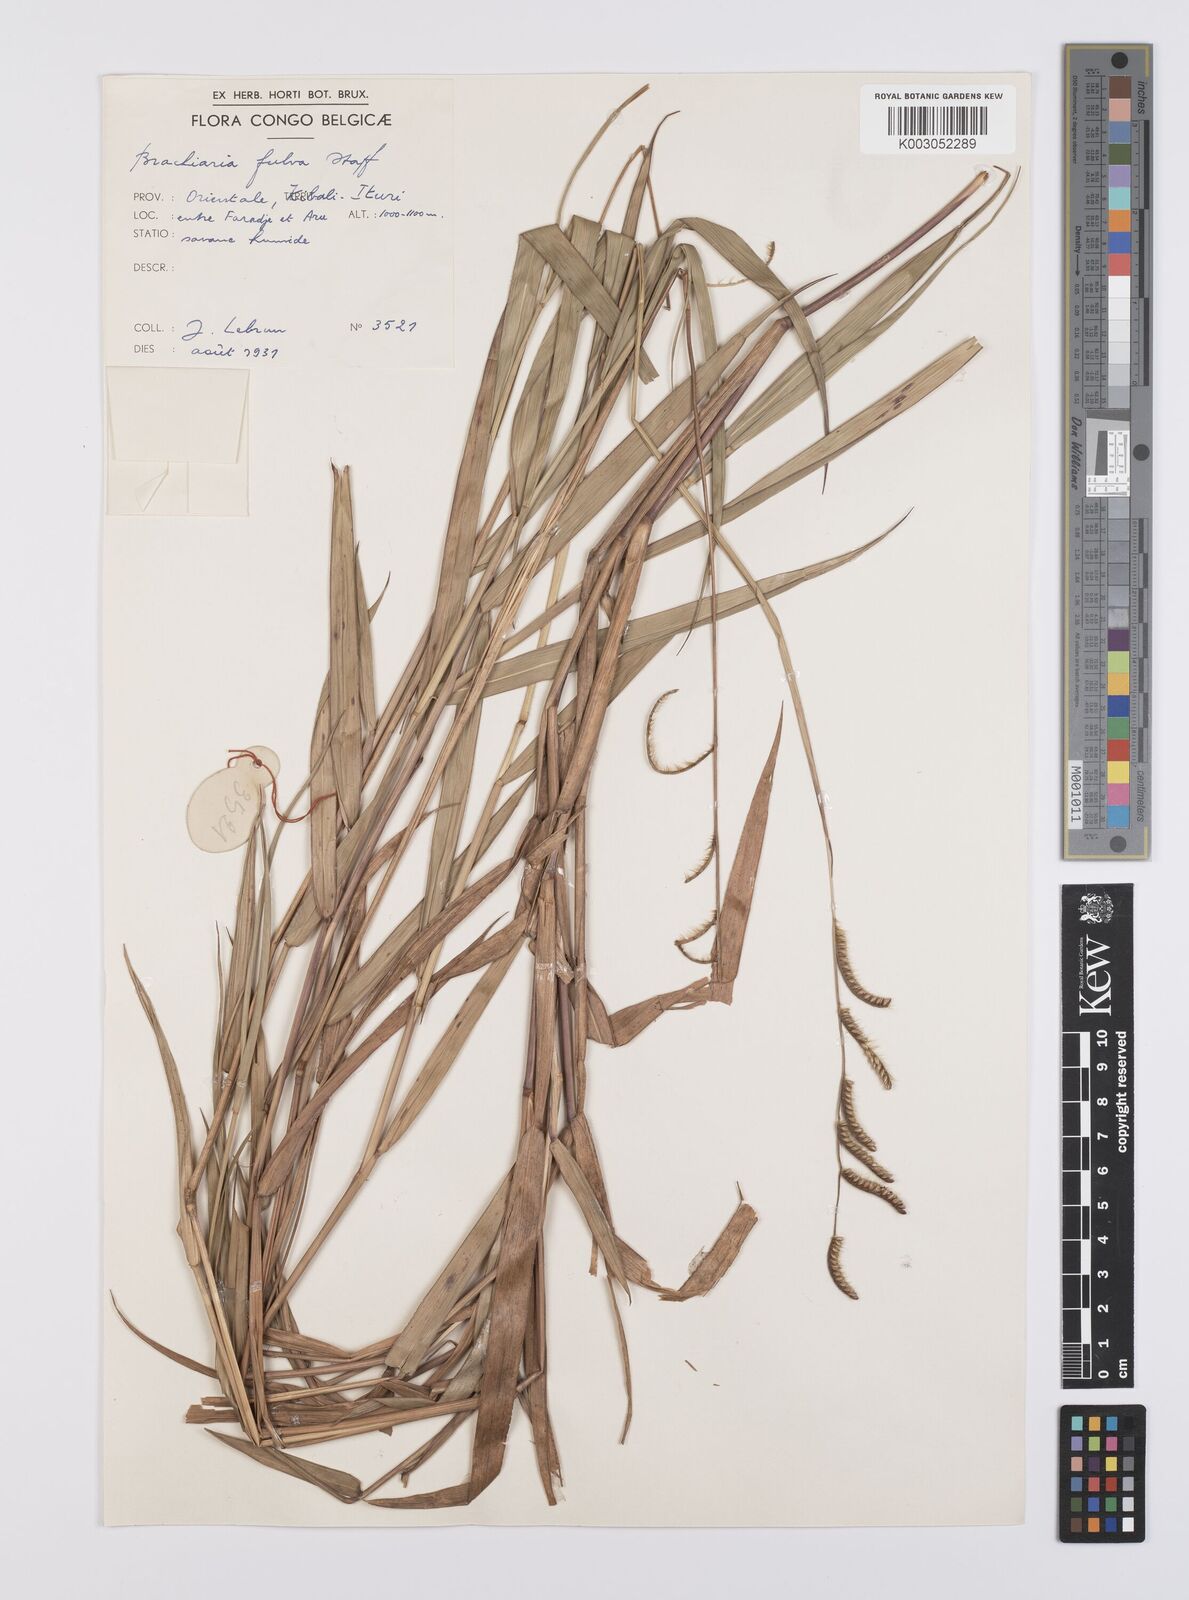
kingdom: Plantae
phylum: Tracheophyta
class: Liliopsida
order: Poales
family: Poaceae
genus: Urochloa
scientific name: Urochloa jubata
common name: Buffalograss
